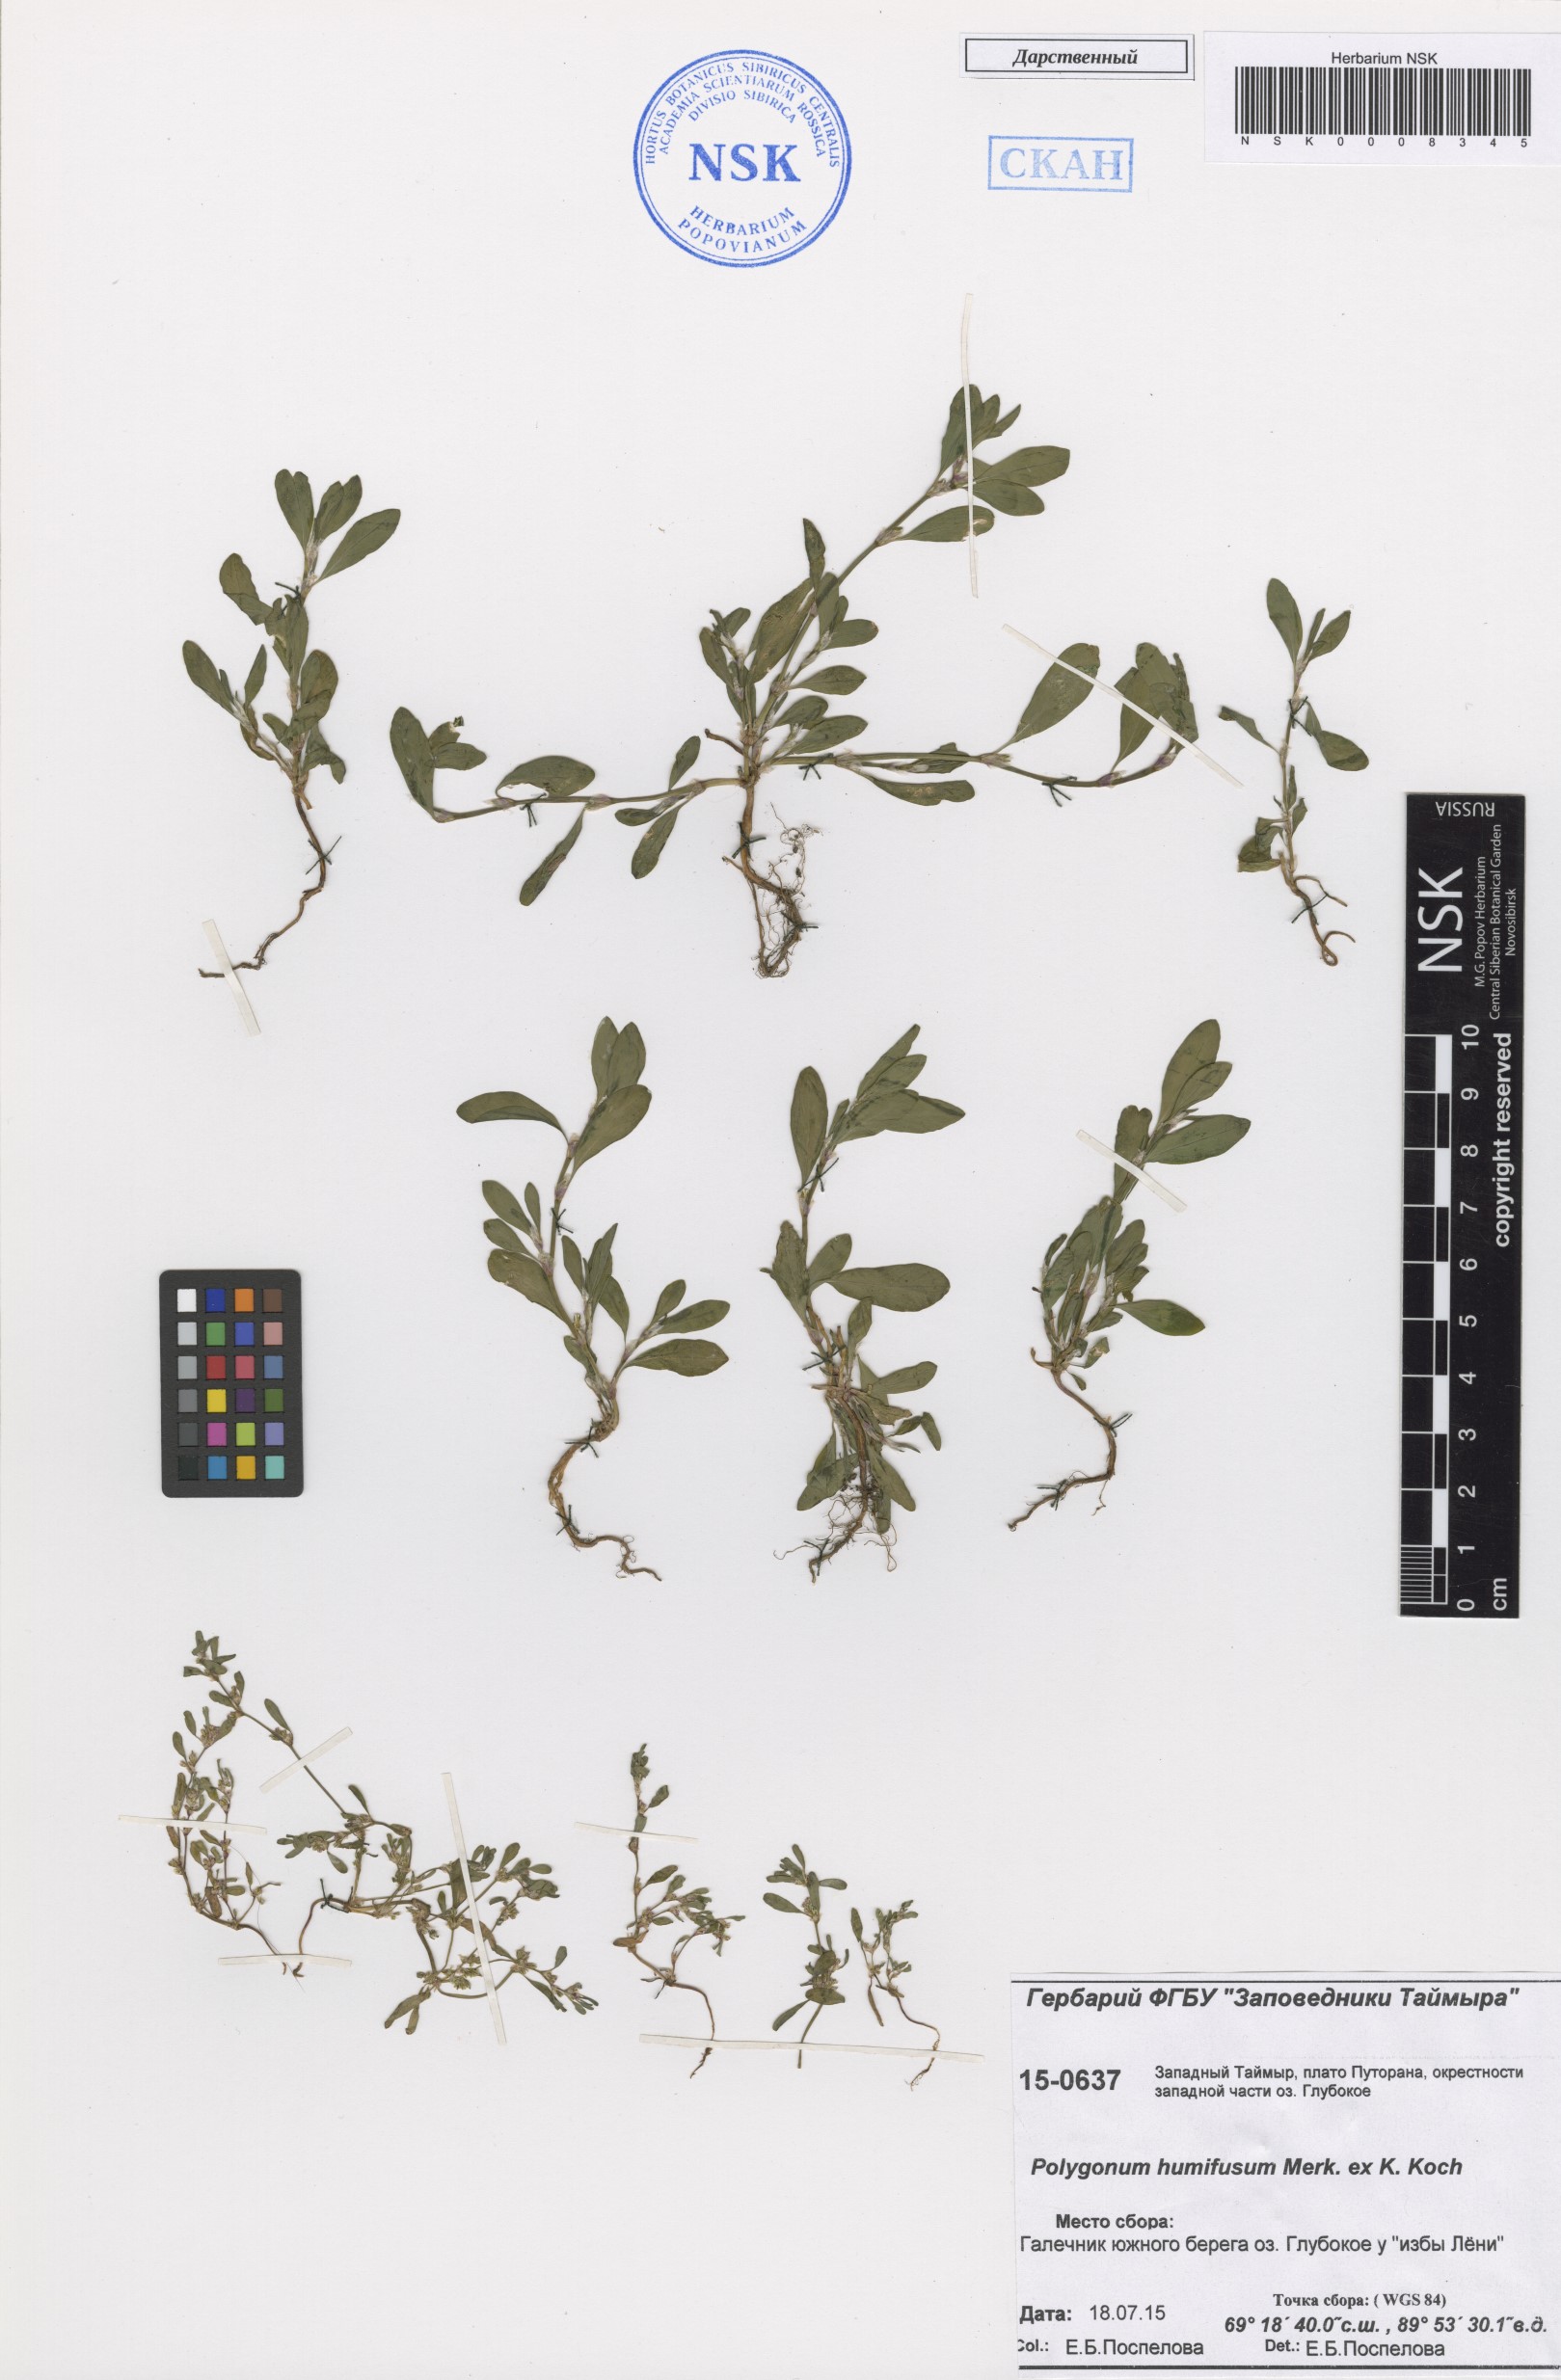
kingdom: Plantae
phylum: Tracheophyta
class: Magnoliopsida
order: Caryophyllales
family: Polygonaceae
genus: Polygonum
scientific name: Polygonum humifusum
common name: Alaska knotweed
